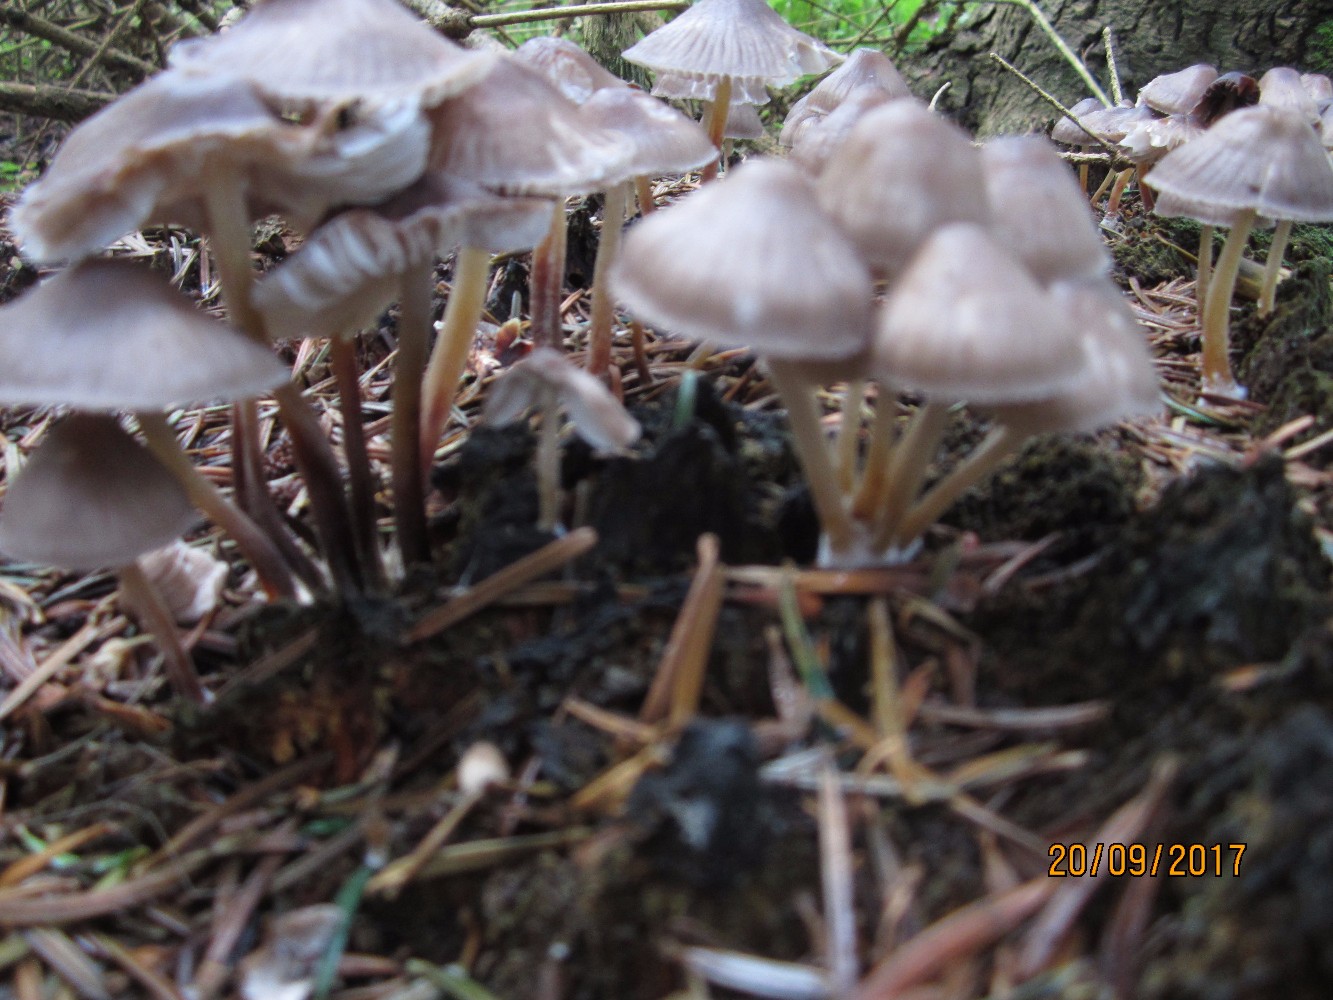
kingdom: Fungi
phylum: Basidiomycota
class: Agaricomycetes
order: Agaricales
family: Mycenaceae
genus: Mycena
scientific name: Mycena inclinata
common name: nikkende huesvamp
